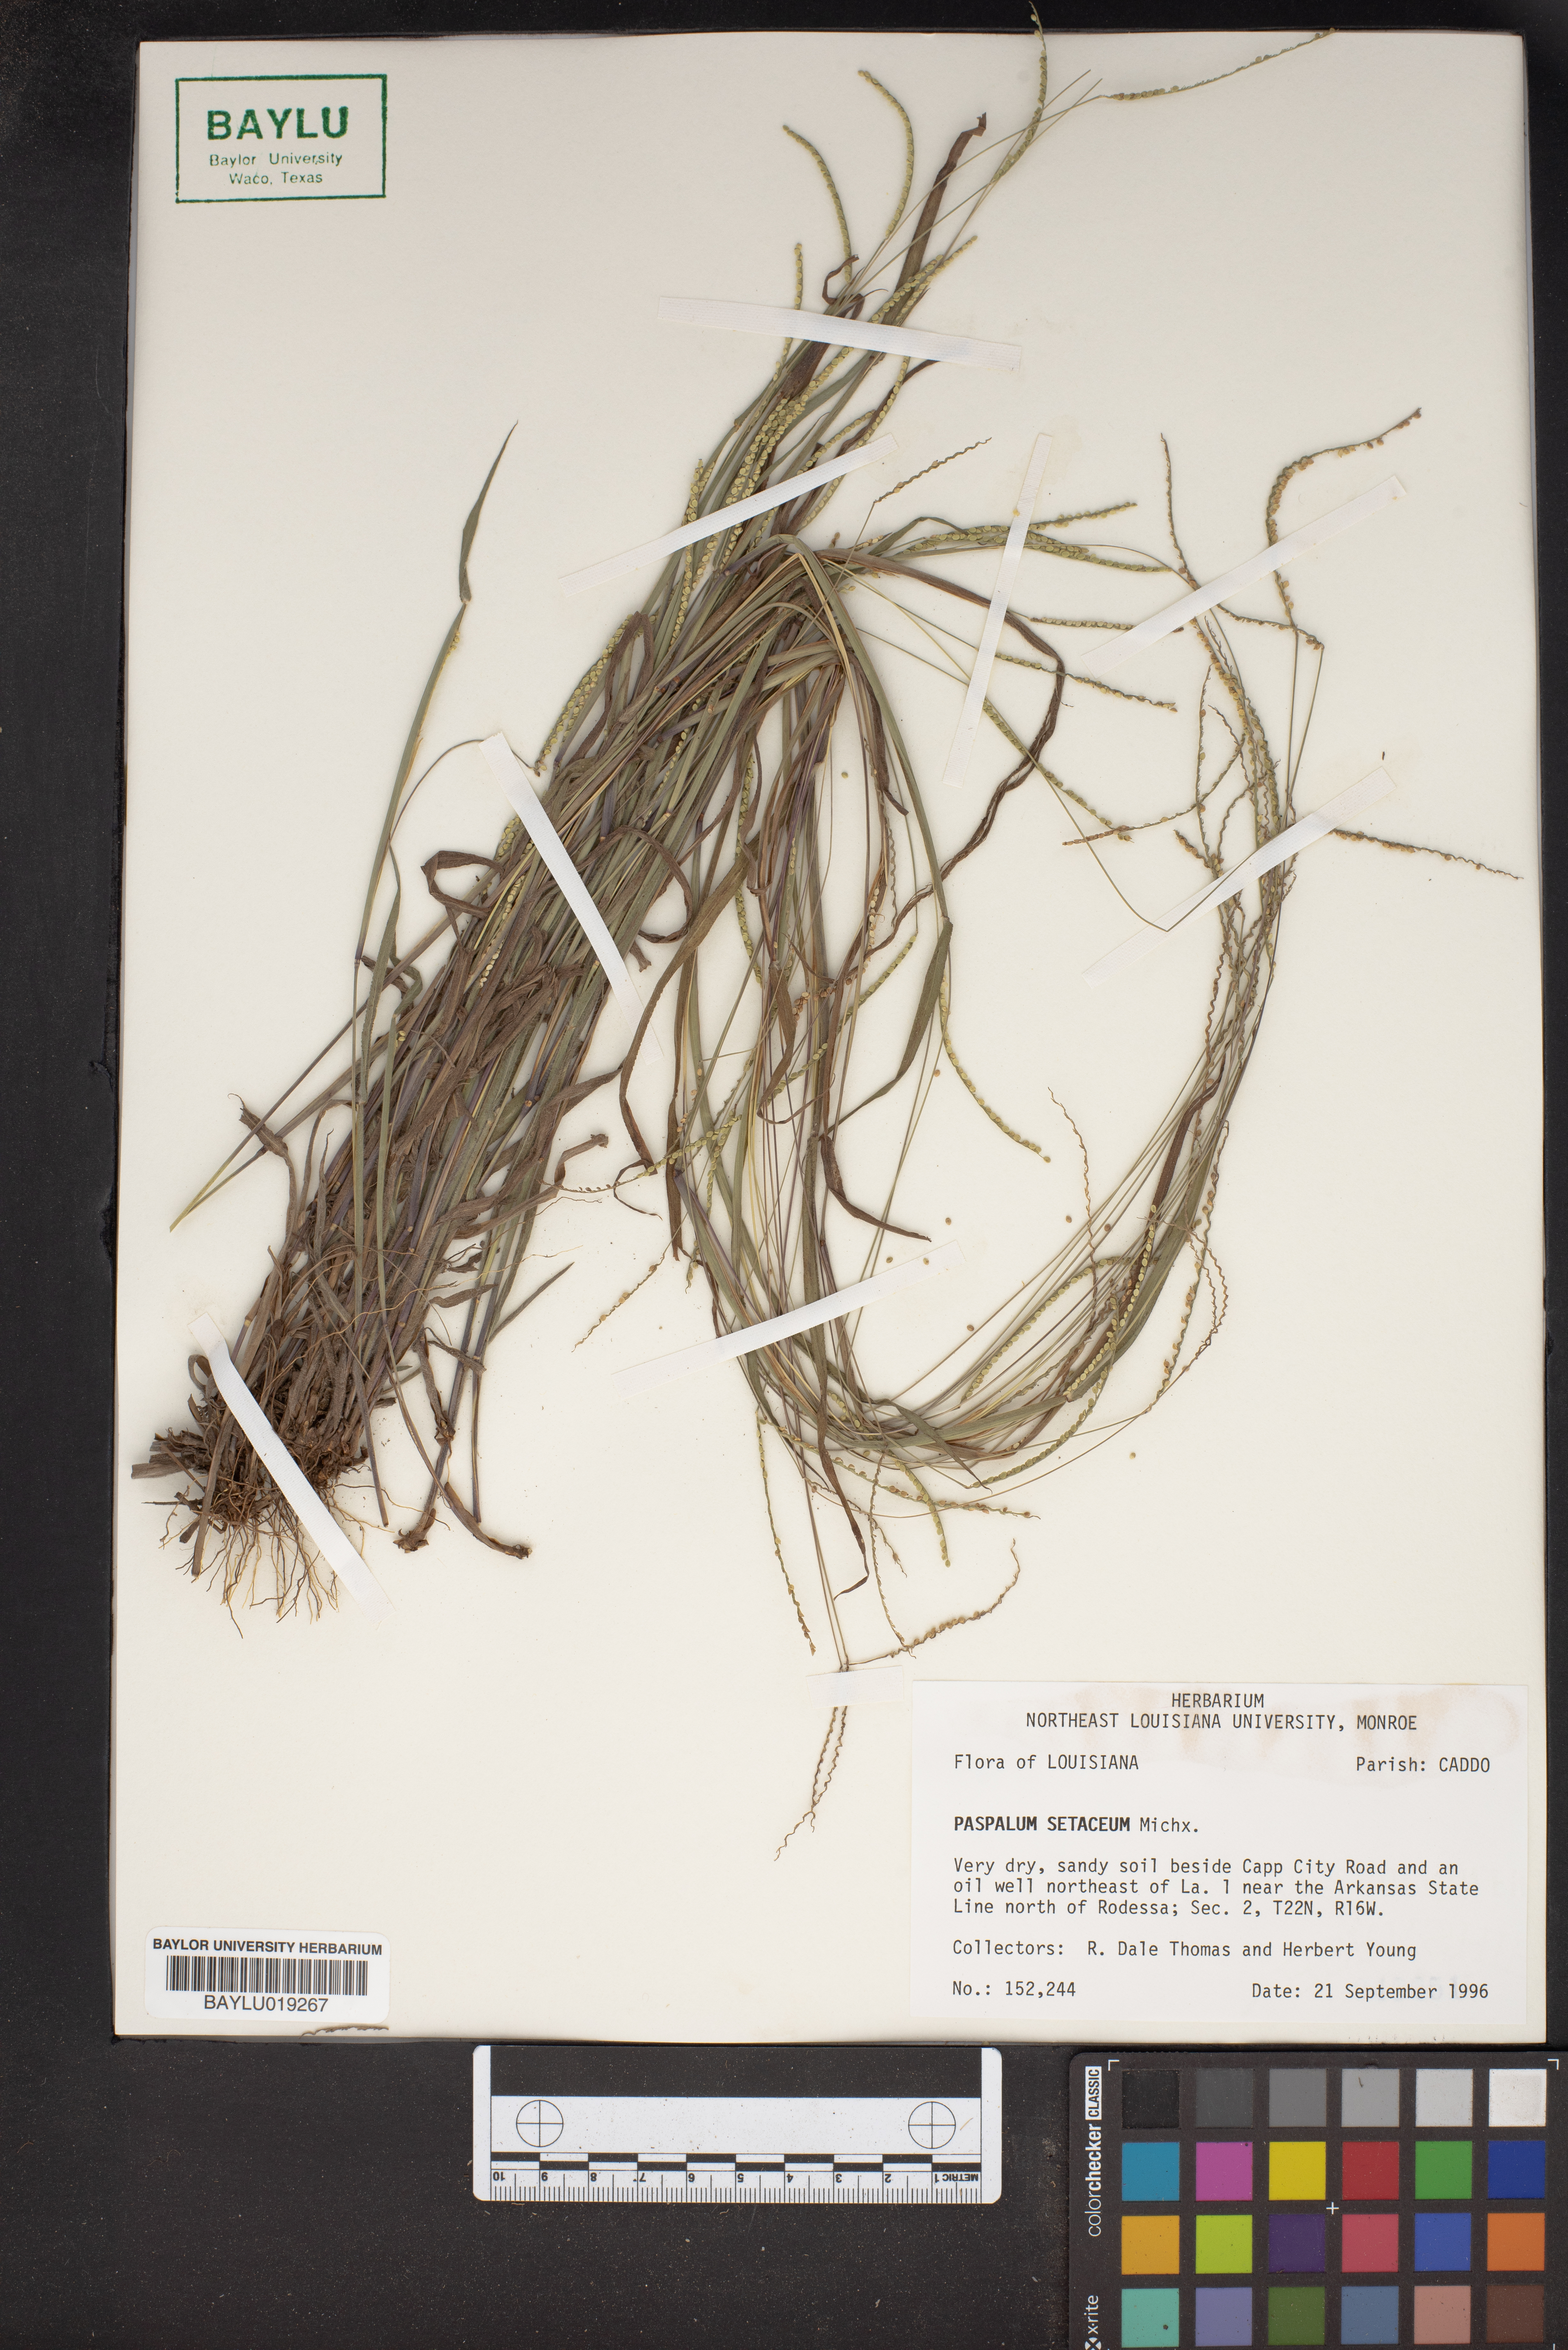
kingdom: Plantae
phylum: Tracheophyta
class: Liliopsida
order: Poales
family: Poaceae
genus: Paspalum
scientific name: Paspalum setaceum
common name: Slender paspalum
